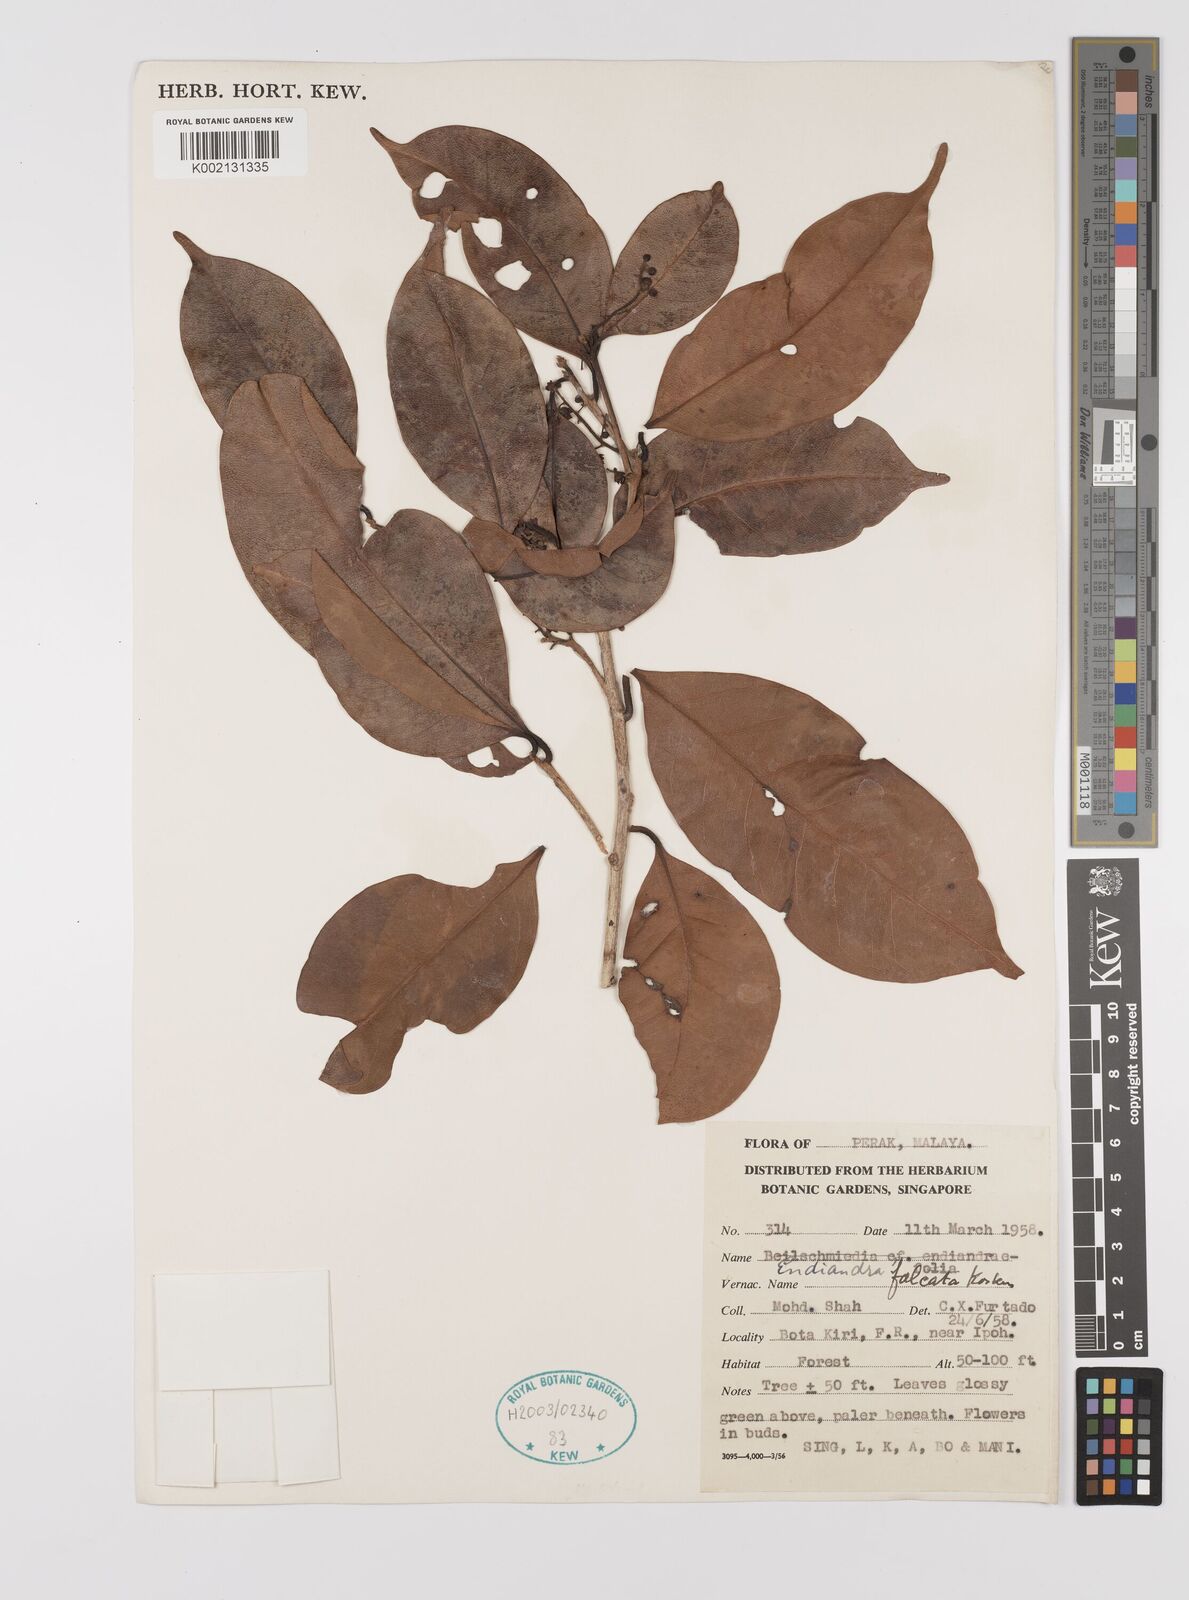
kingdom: Plantae
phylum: Tracheophyta
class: Magnoliopsida
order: Laurales
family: Lauraceae
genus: Endiandra
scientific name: Endiandra
